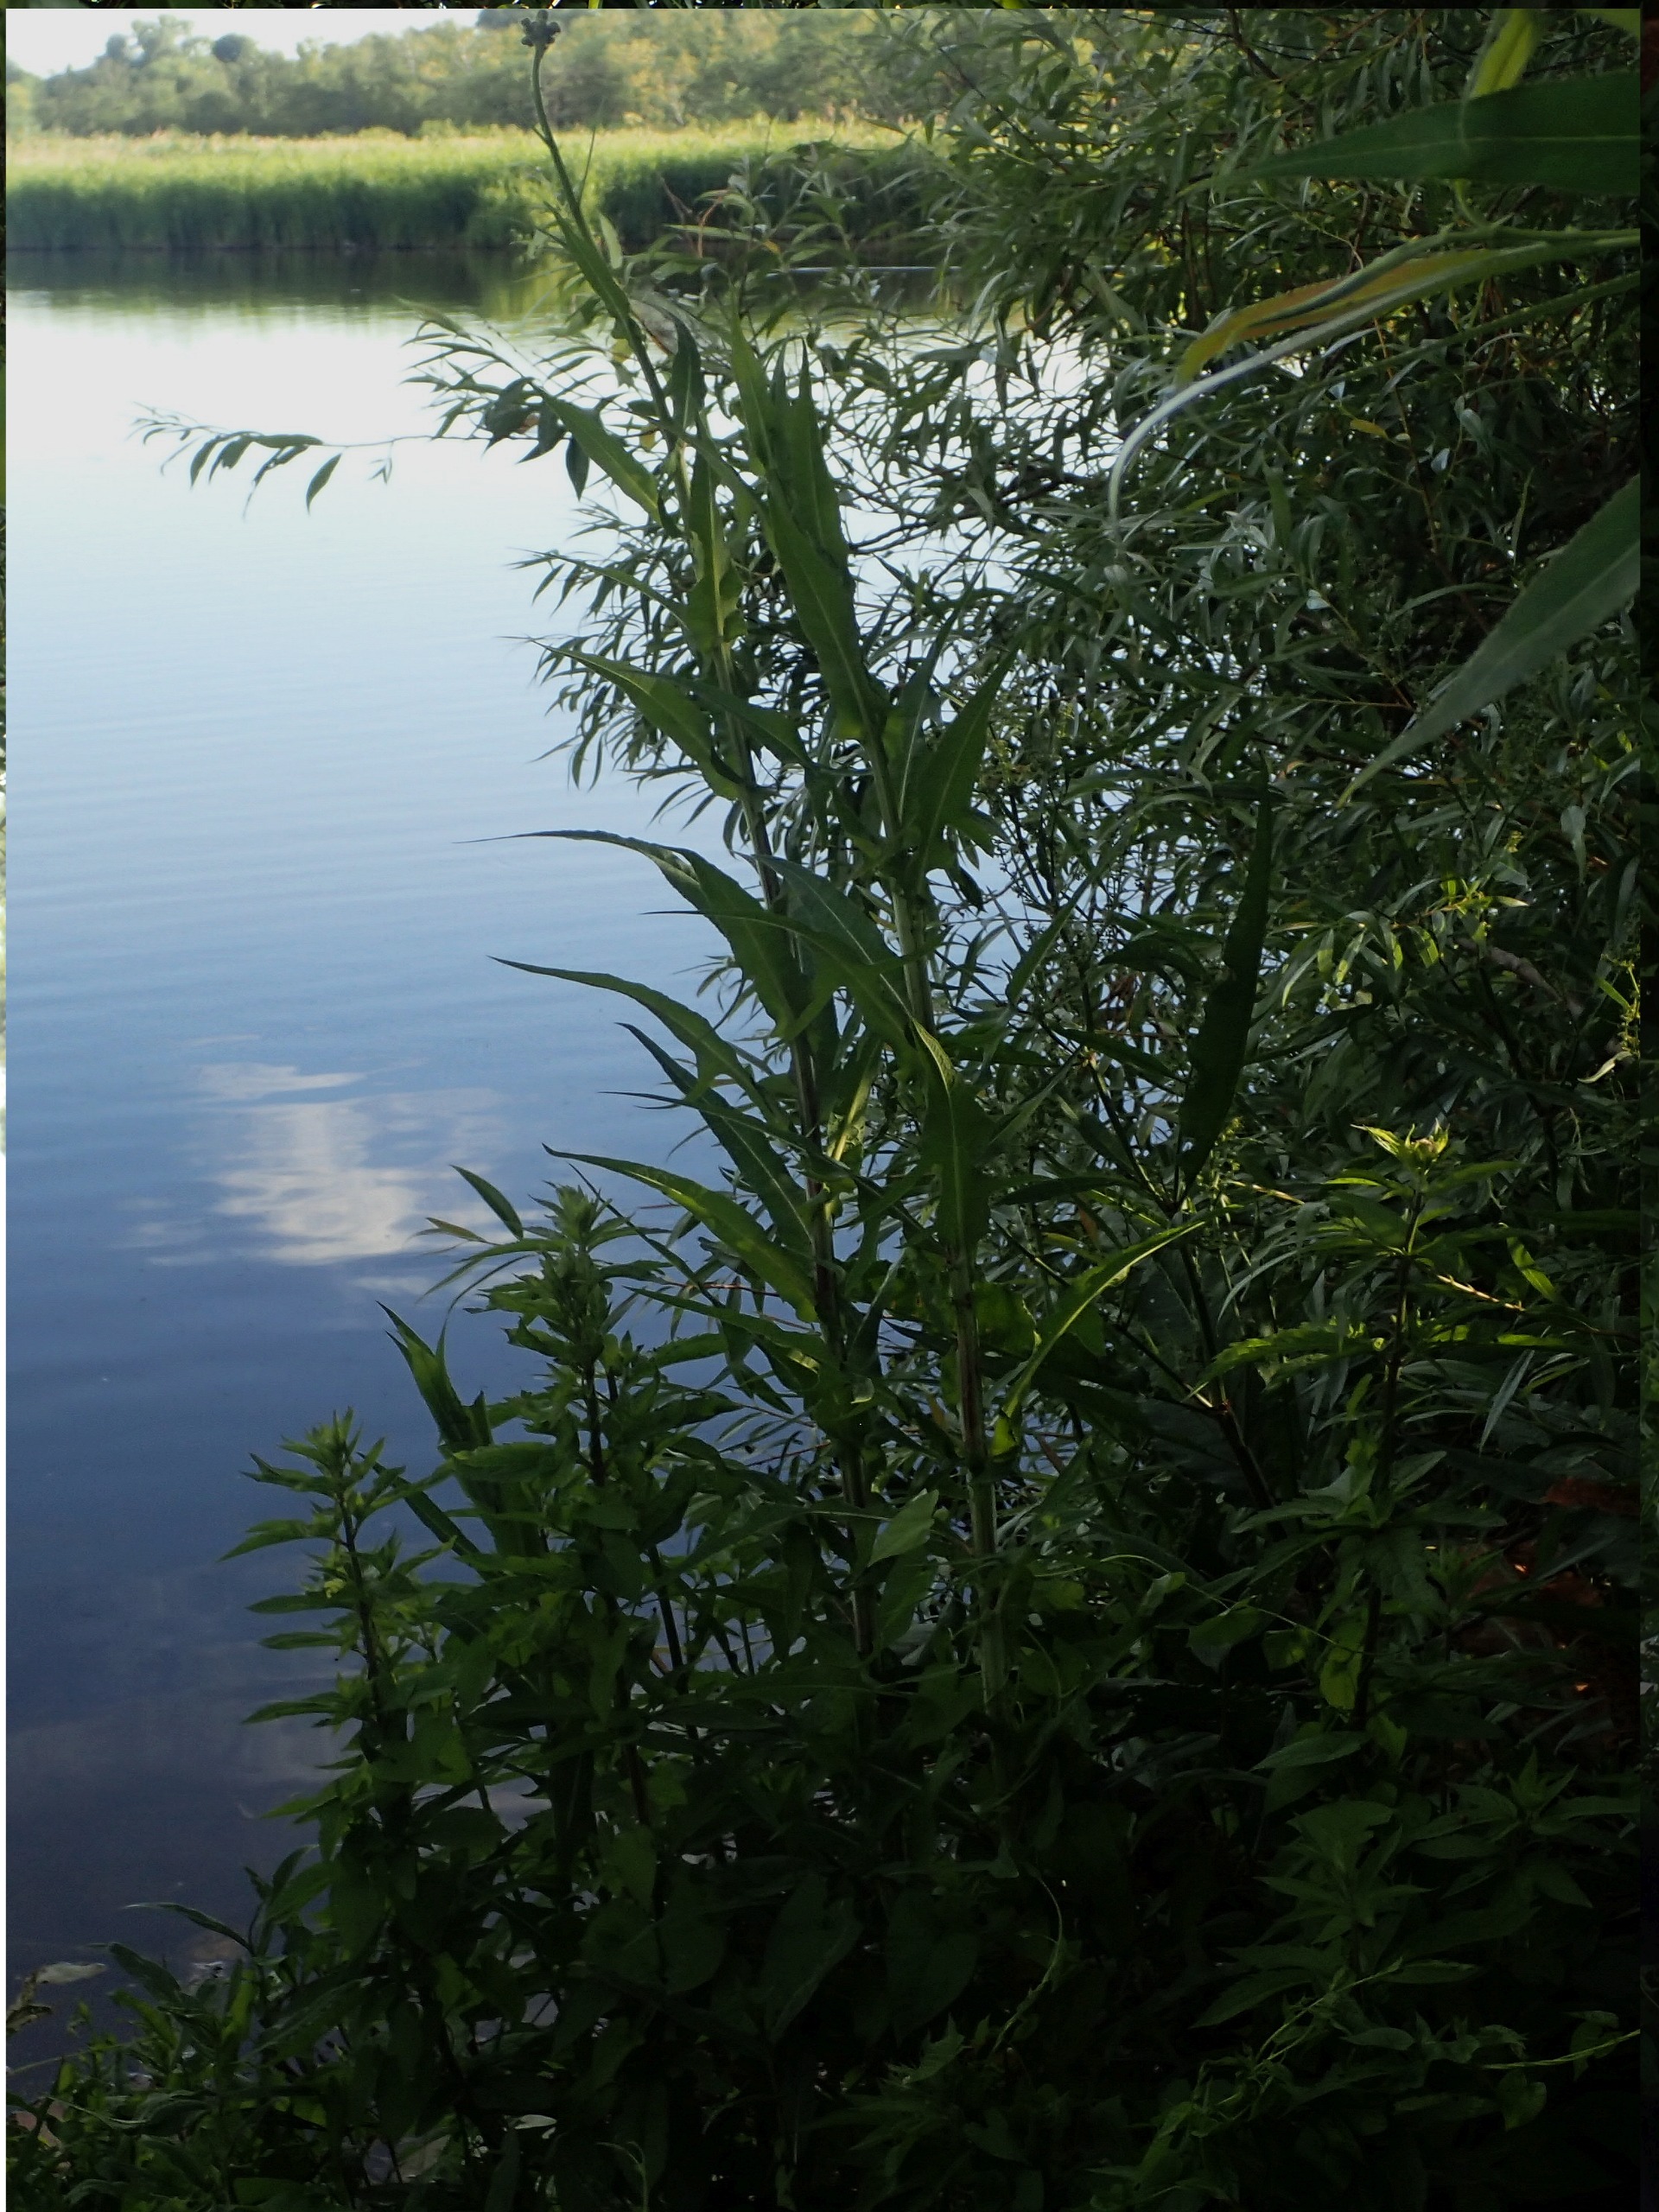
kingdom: Plantae
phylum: Tracheophyta
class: Magnoliopsida
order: Asterales
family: Asteraceae
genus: Sonchus
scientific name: Sonchus palustris
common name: Kær-svinemælk
